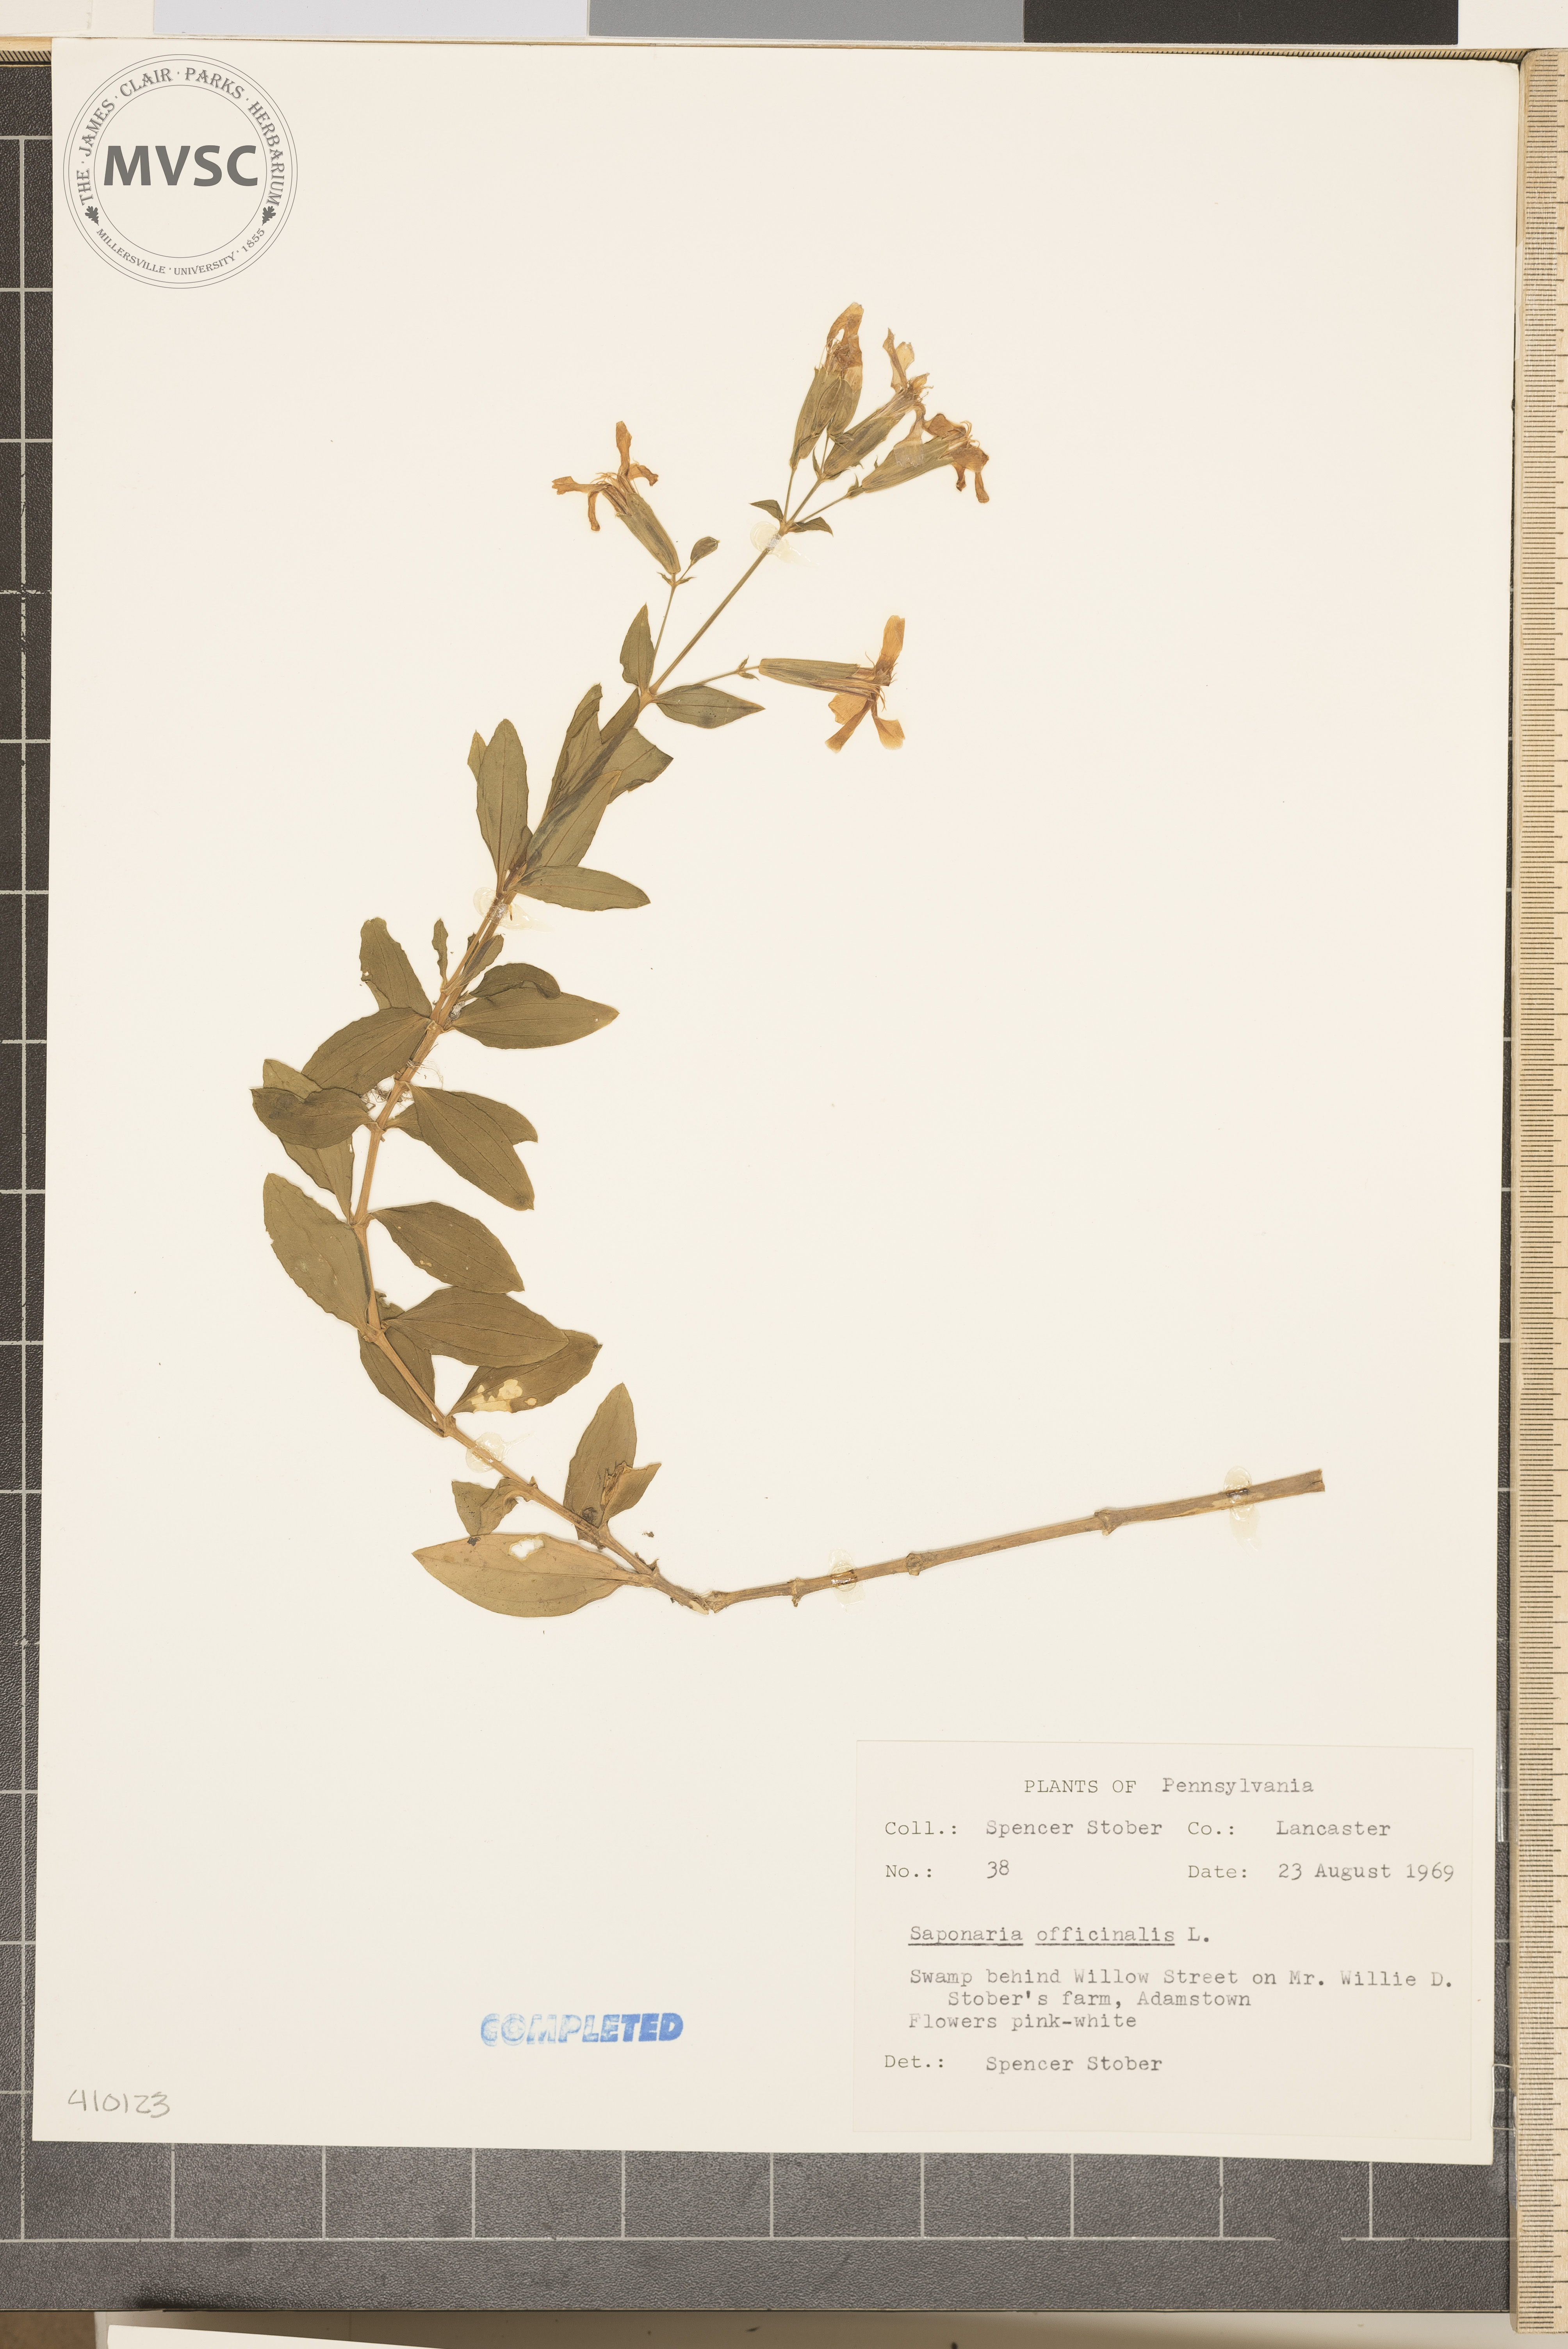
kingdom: Plantae
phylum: Tracheophyta
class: Magnoliopsida
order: Caryophyllales
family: Caryophyllaceae
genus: Saponaria
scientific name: Saponaria officinalis
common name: Soapwort
